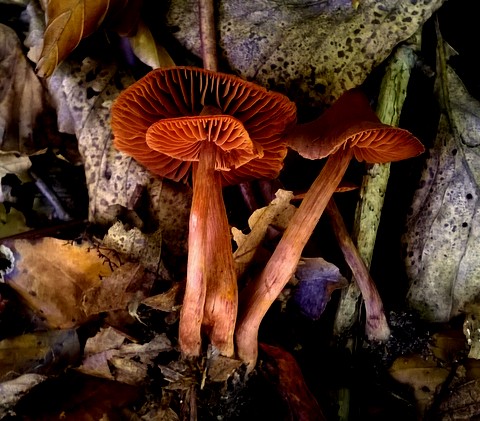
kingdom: Fungi
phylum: Basidiomycota
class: Agaricomycetes
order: Agaricales
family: Cortinariaceae
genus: Cortinarius
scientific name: Cortinarius danicus
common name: dansk slørhat
